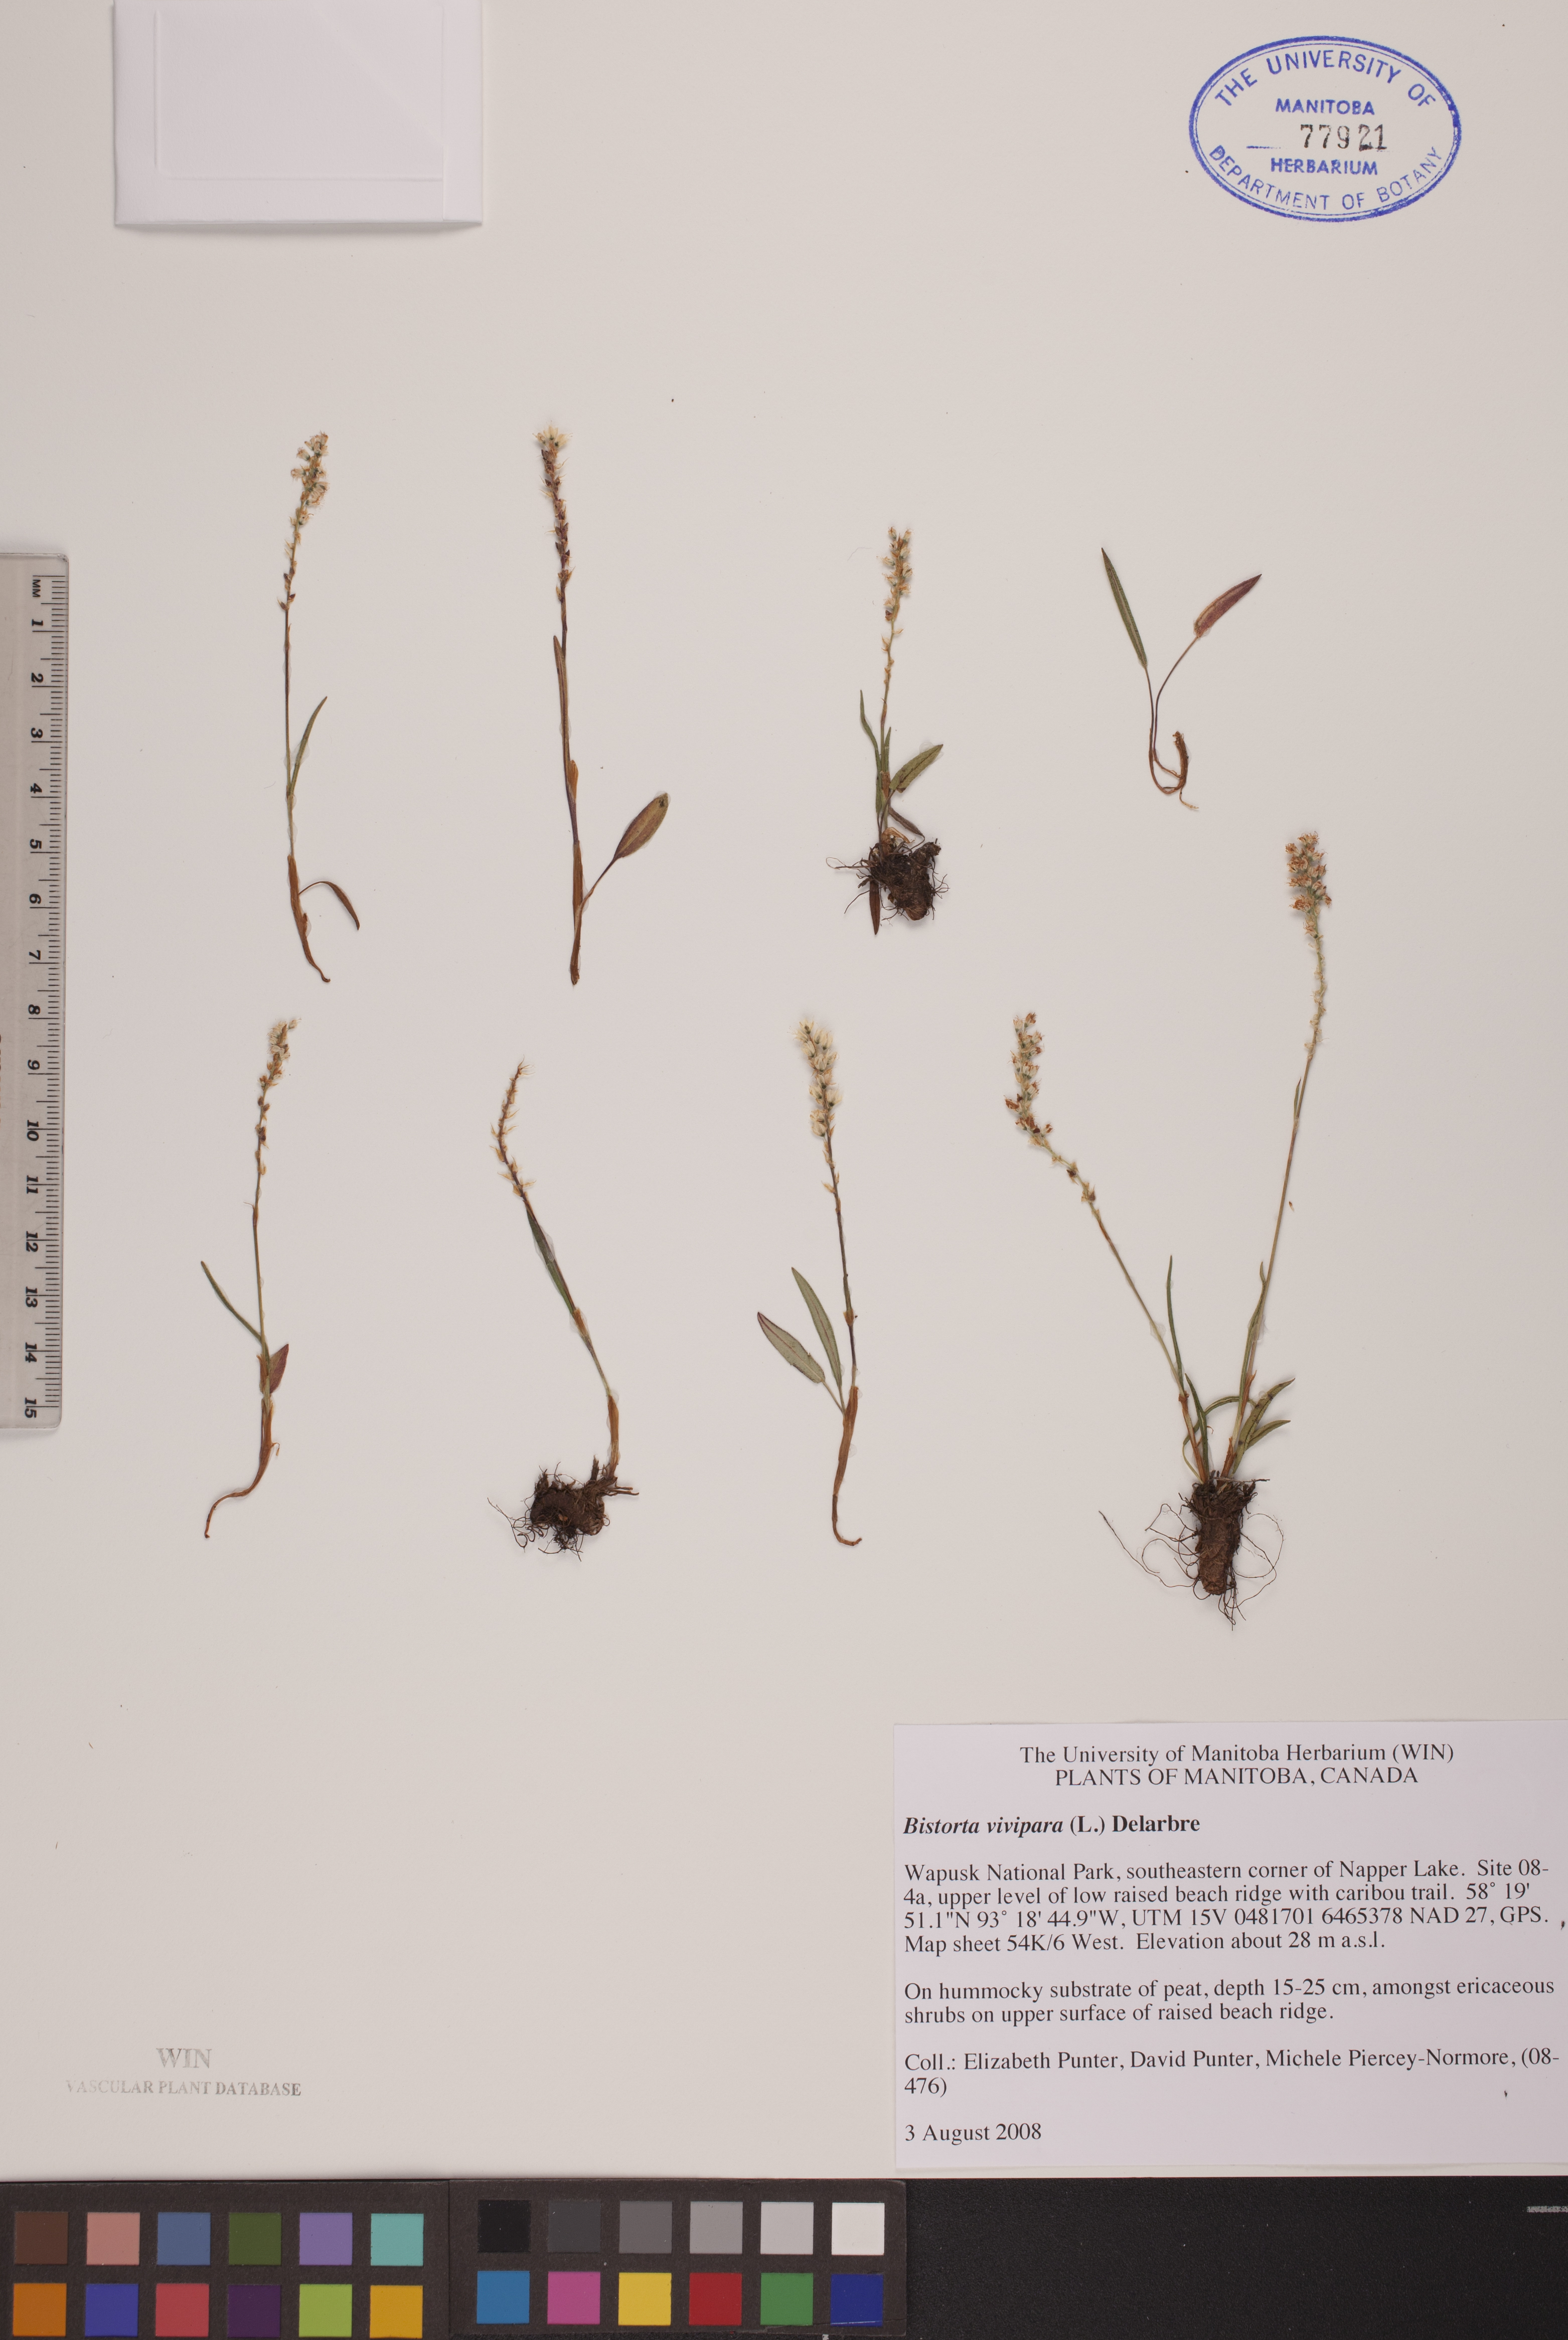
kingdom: Plantae
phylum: Tracheophyta
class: Magnoliopsida
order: Caryophyllales
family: Polygonaceae
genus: Bistorta
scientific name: Bistorta vivipara
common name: Alpine bistort
